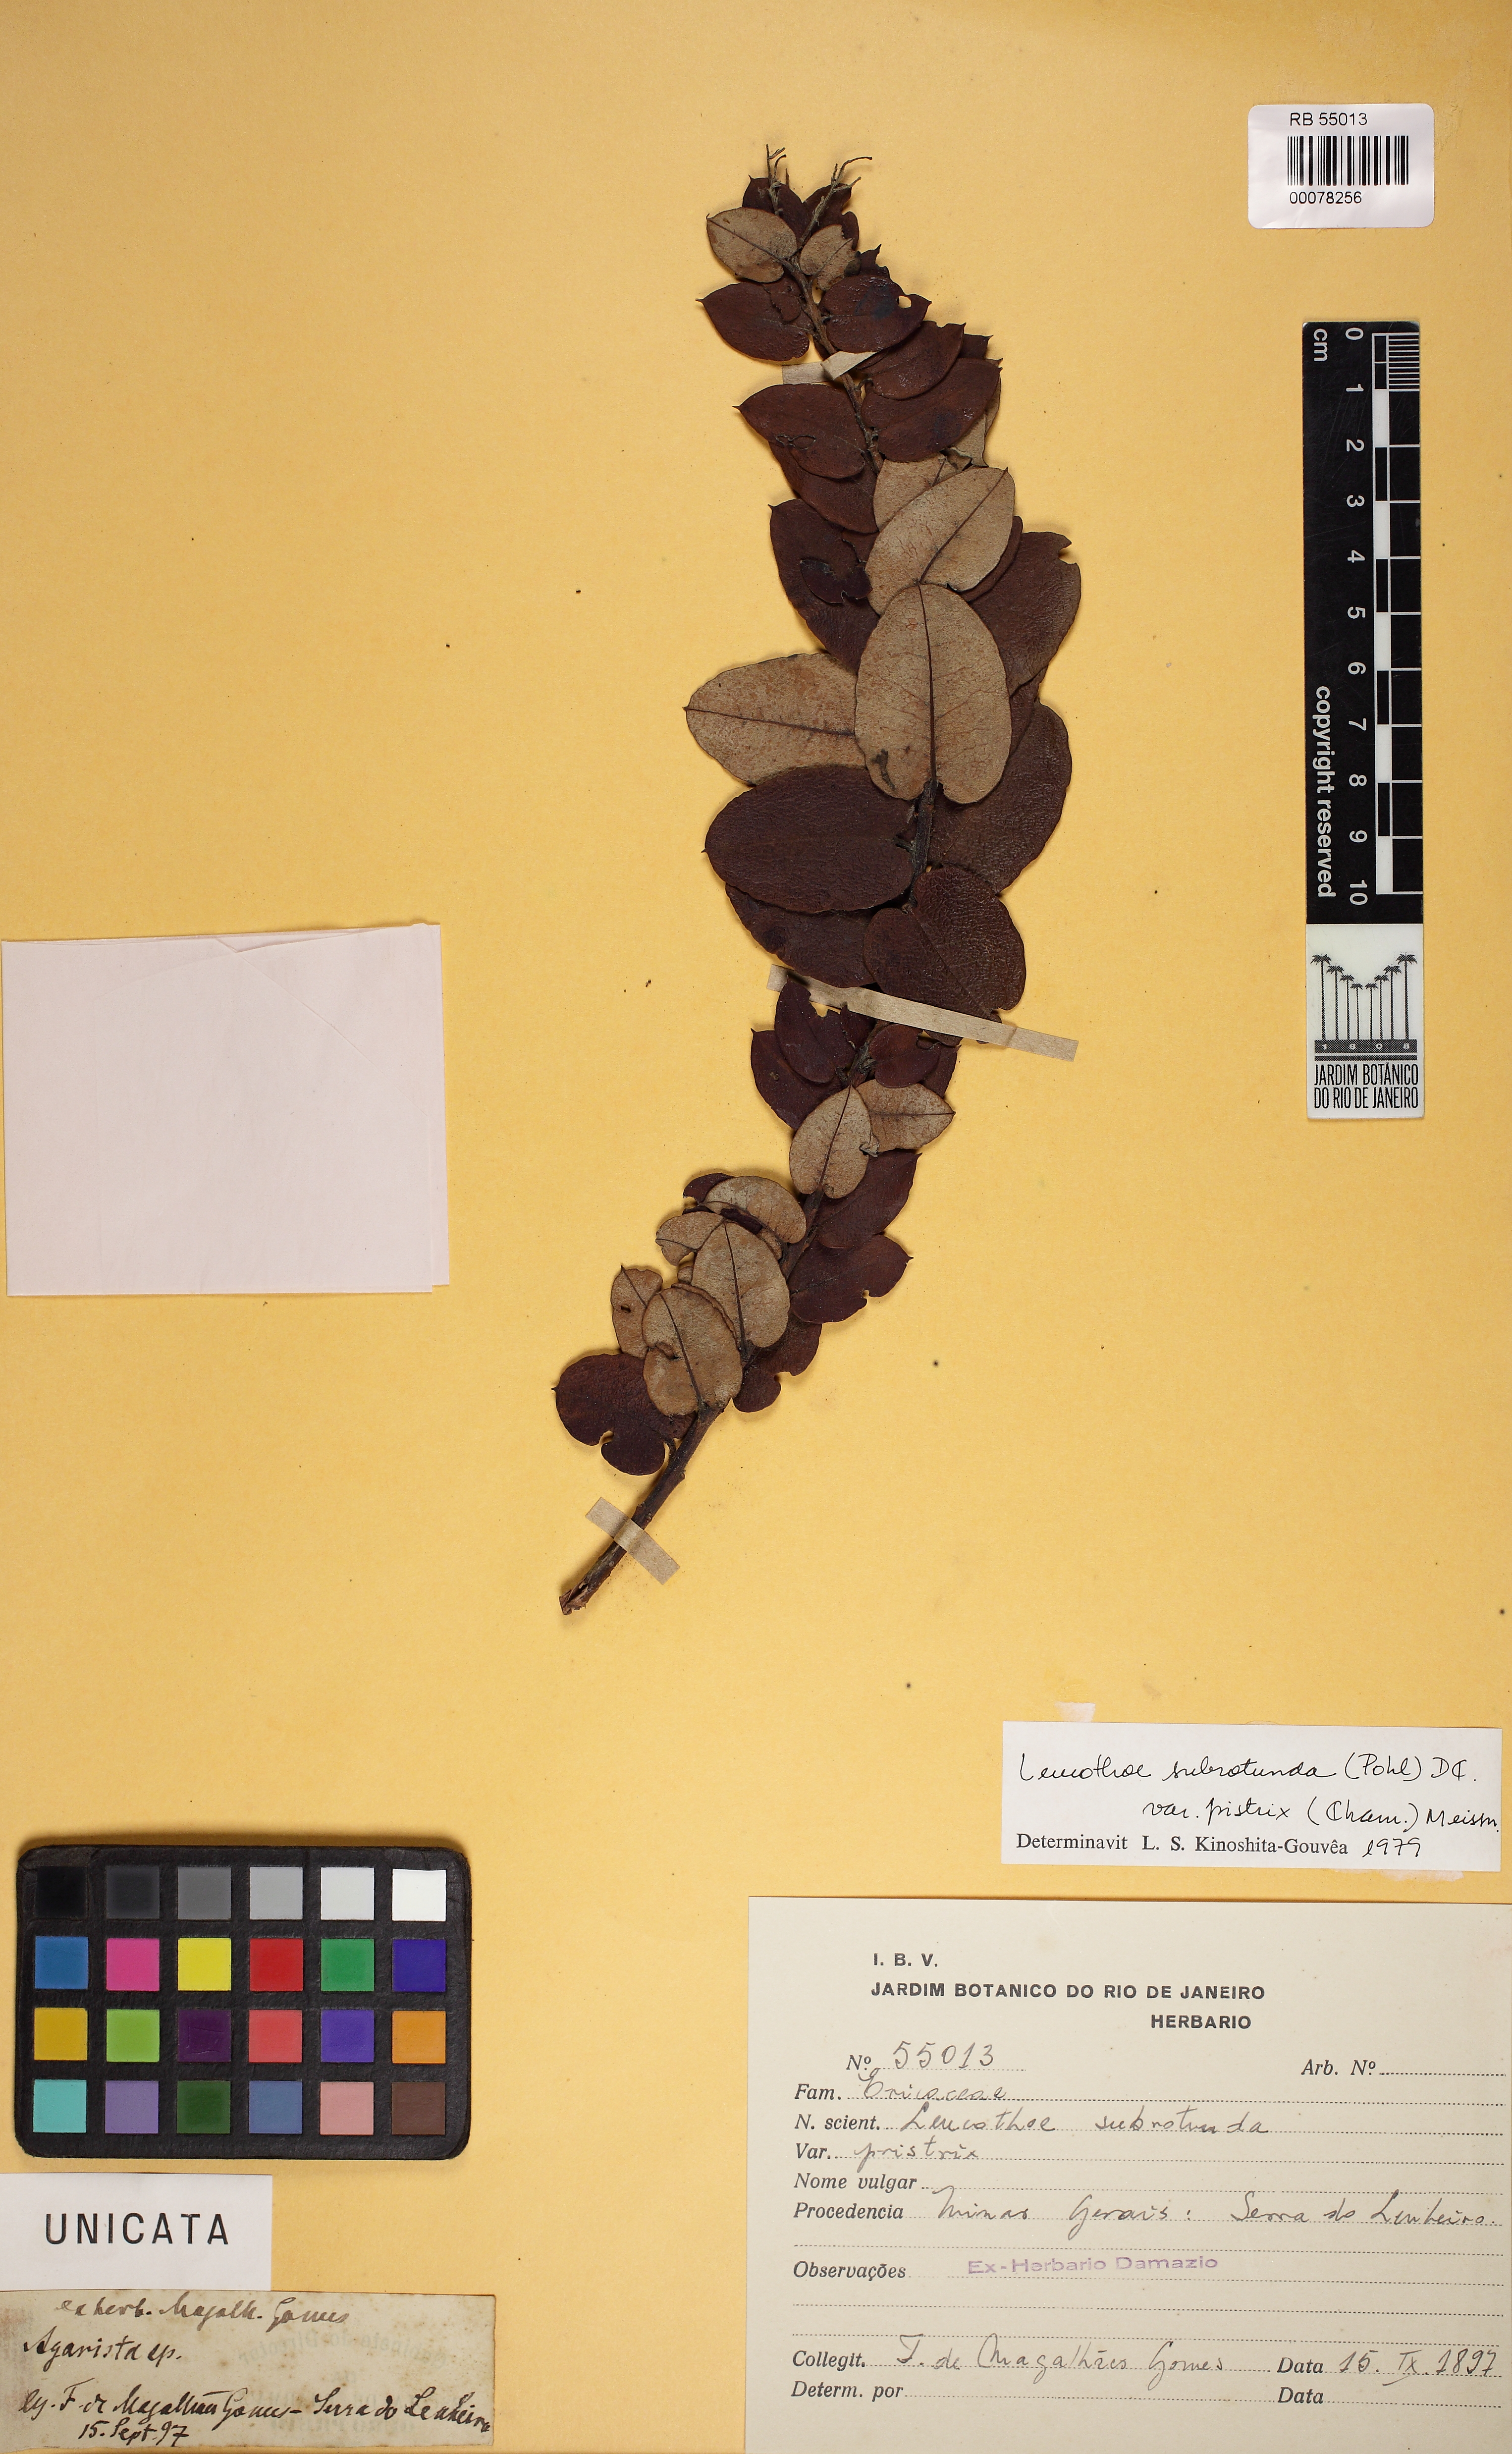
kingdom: Plantae
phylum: Tracheophyta
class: Magnoliopsida
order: Ericales
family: Ericaceae
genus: Agarista
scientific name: Agarista subrotunda
